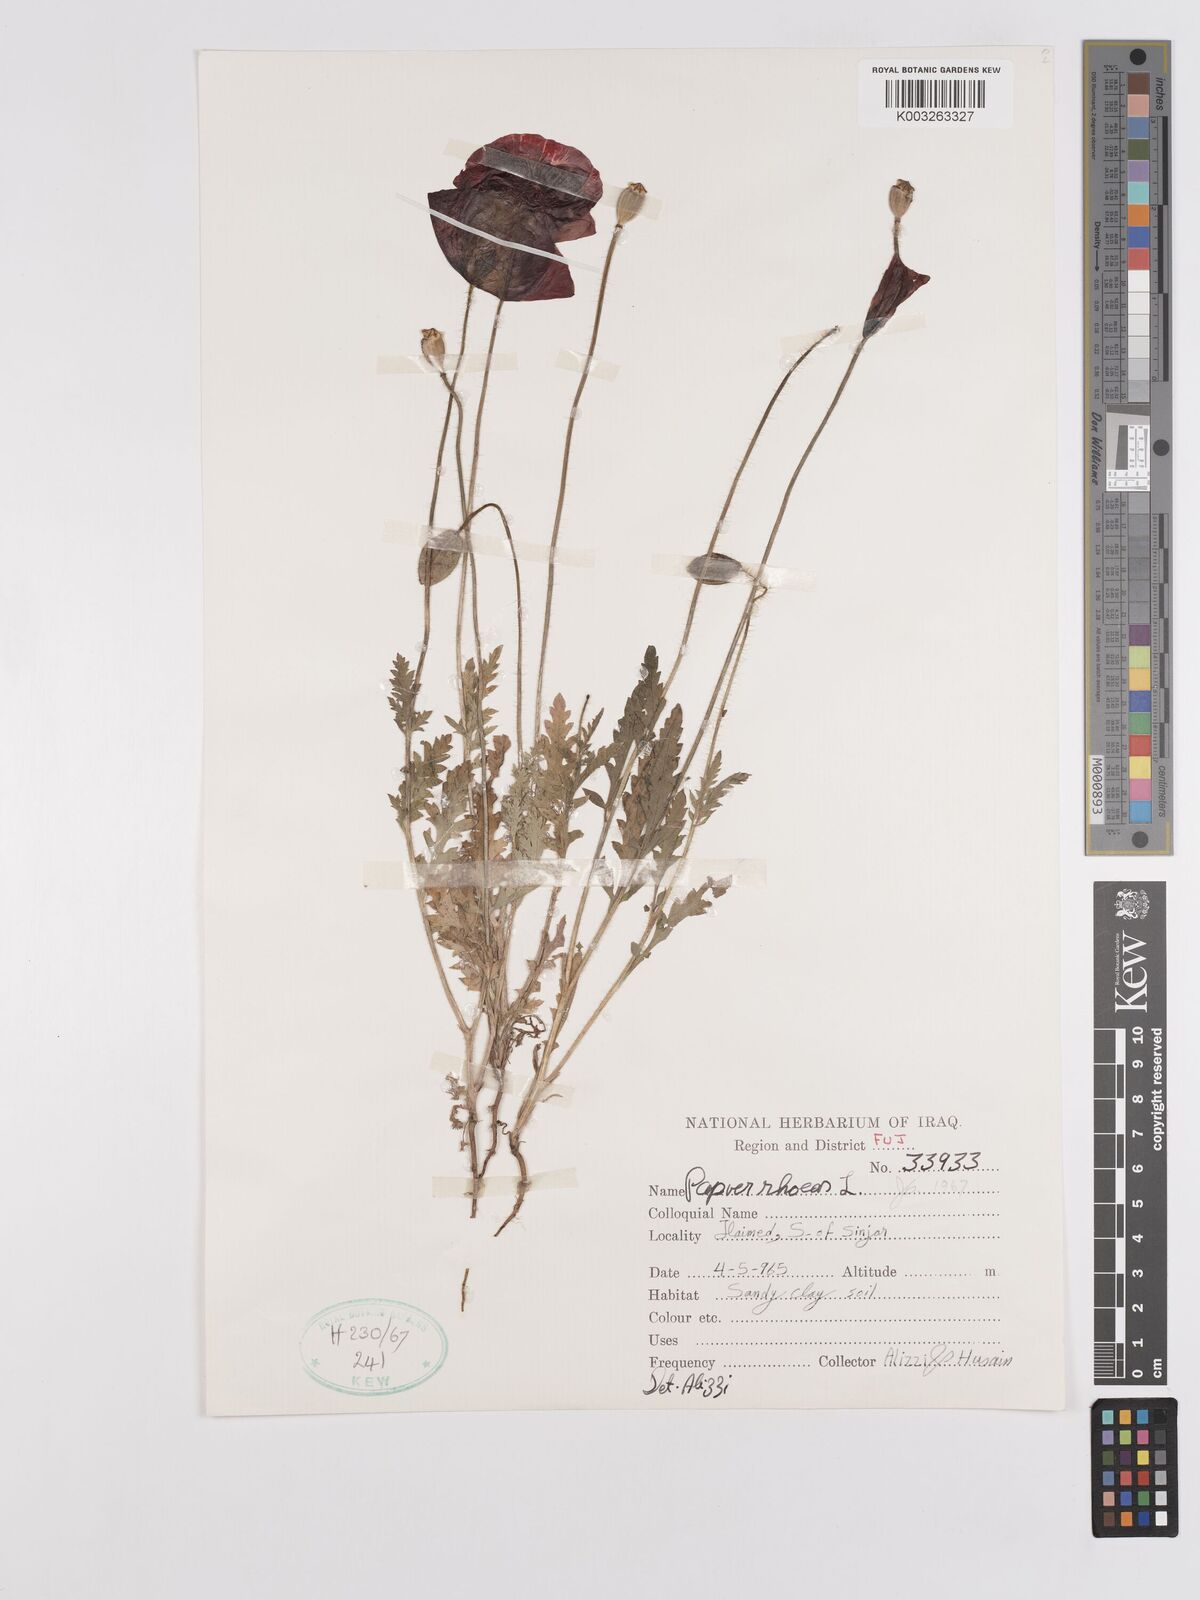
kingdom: Plantae
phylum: Tracheophyta
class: Magnoliopsida
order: Ranunculales
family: Papaveraceae
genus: Papaver
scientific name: Papaver rhoeas
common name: Corn poppy
